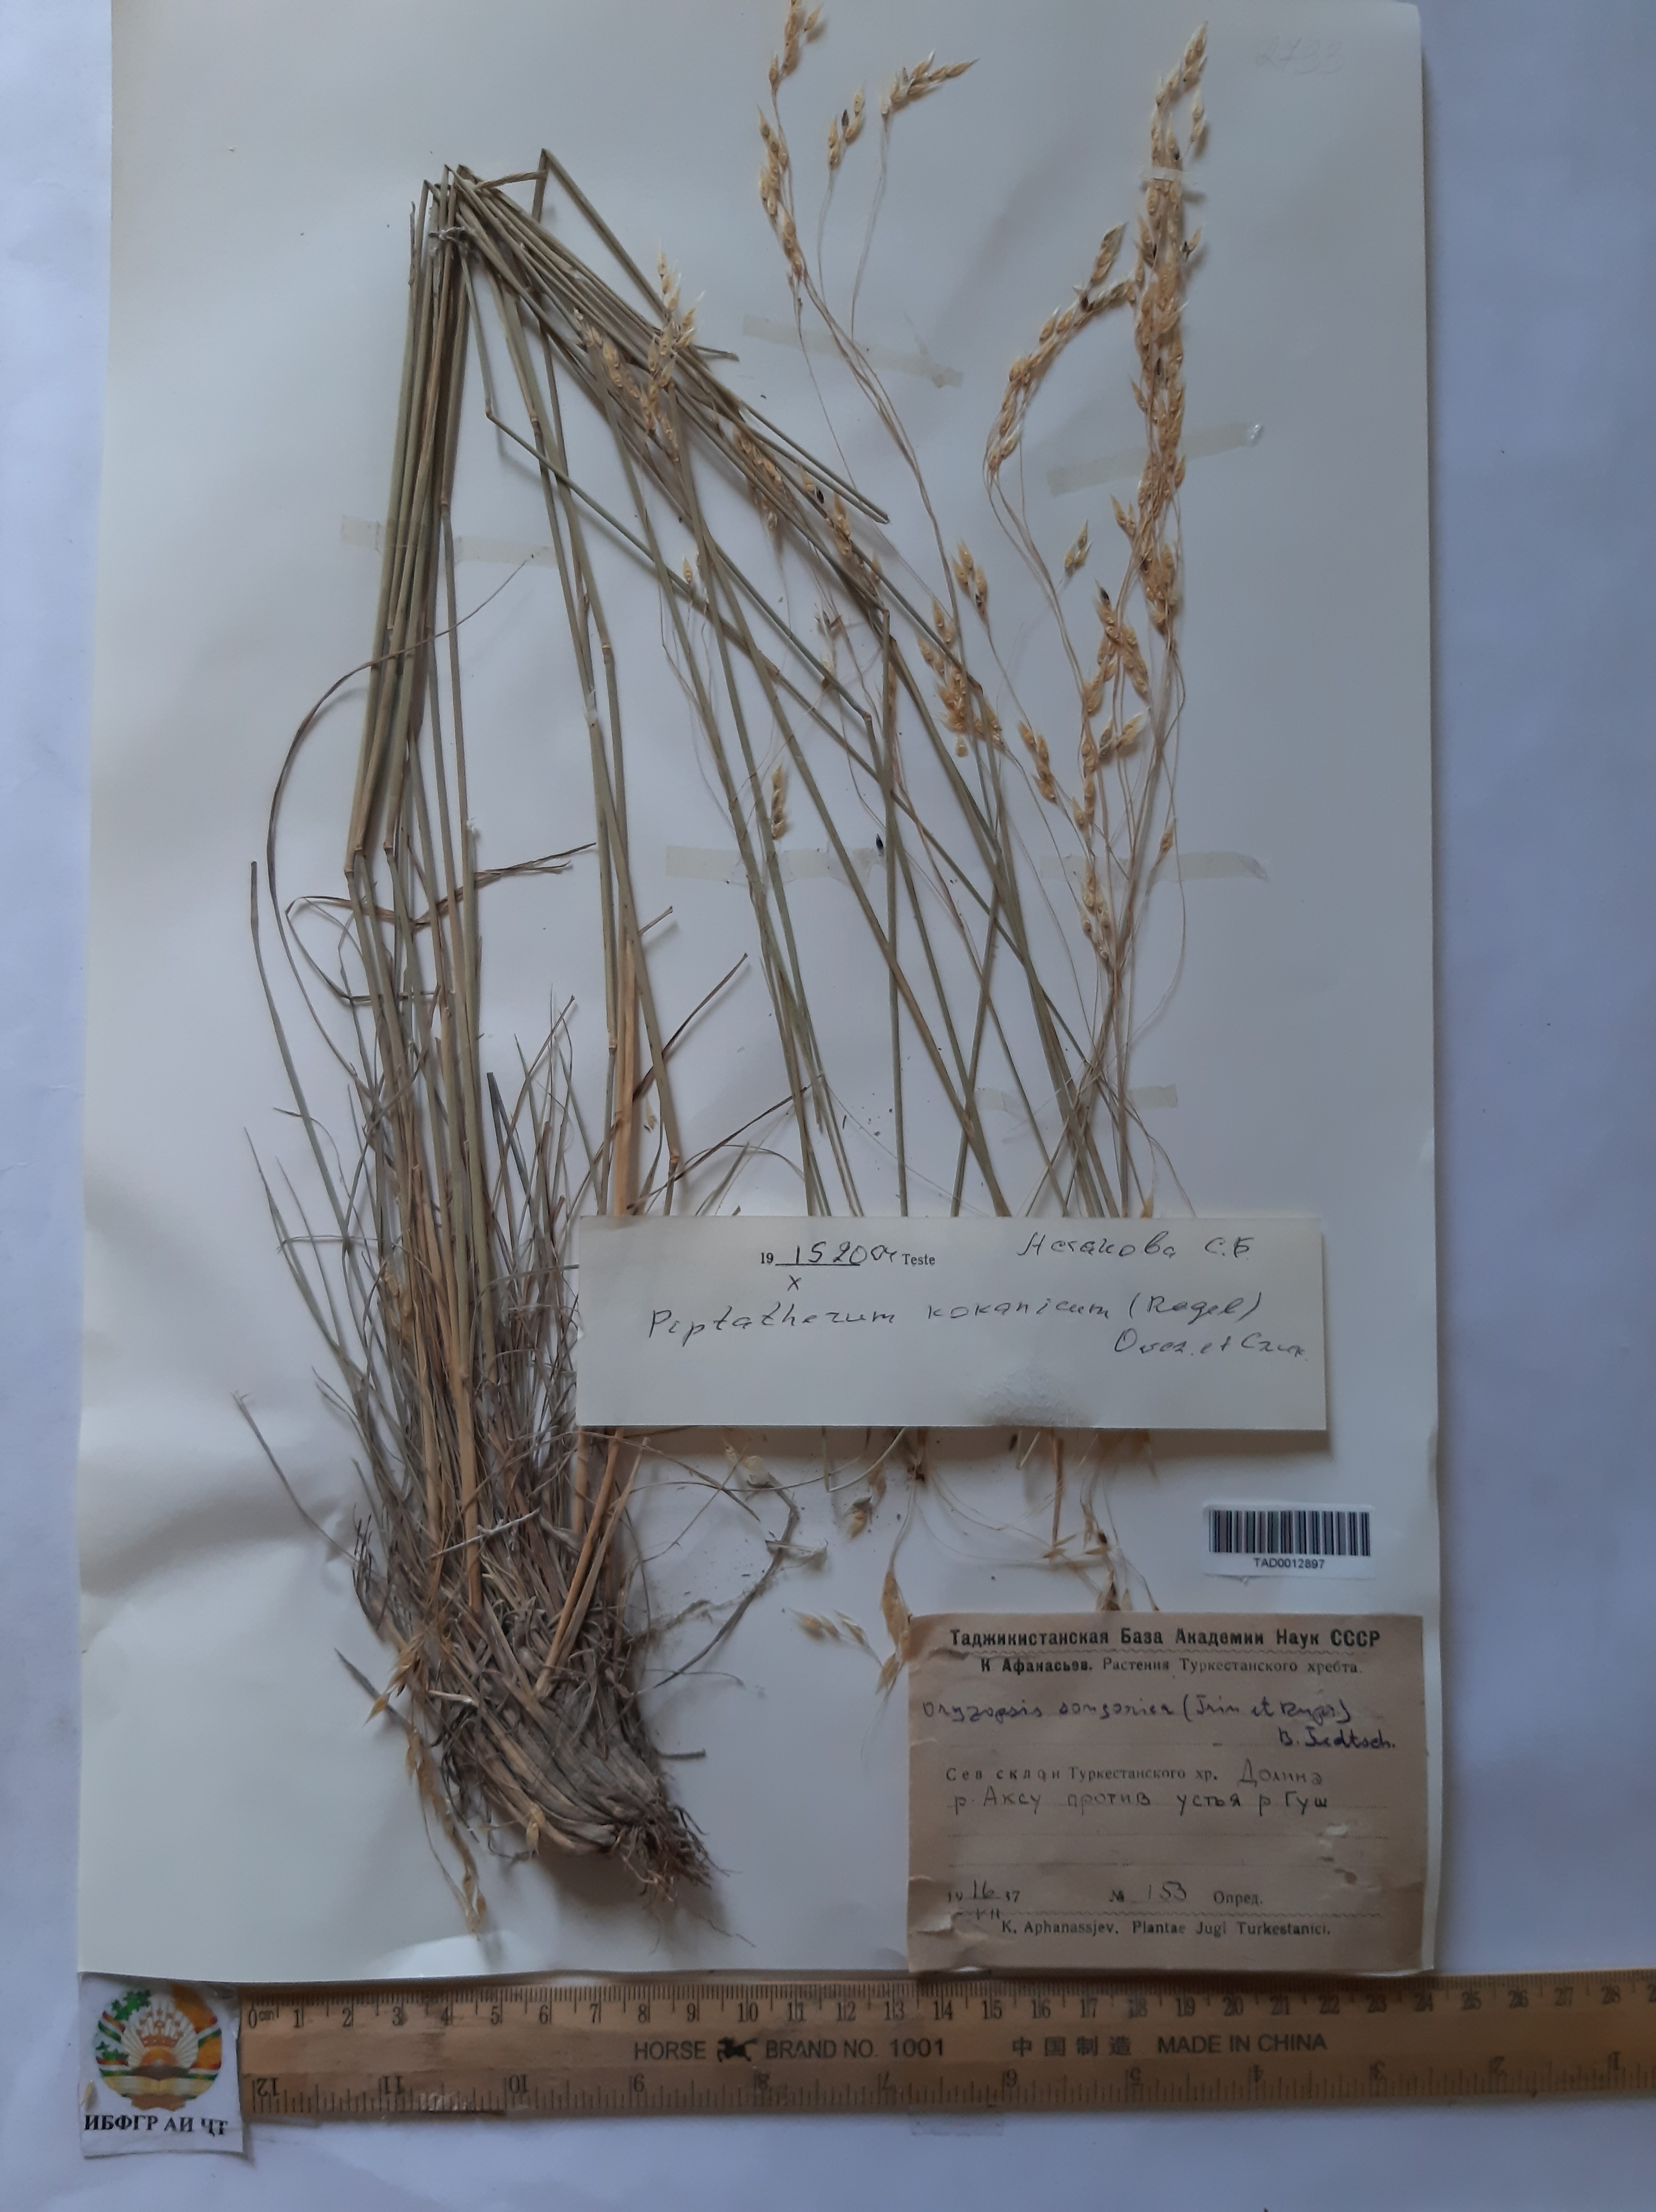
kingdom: Plantae
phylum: Tracheophyta
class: Liliopsida
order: Poales
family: Poaceae
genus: Piptatherum
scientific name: Piptatherum songaricum
